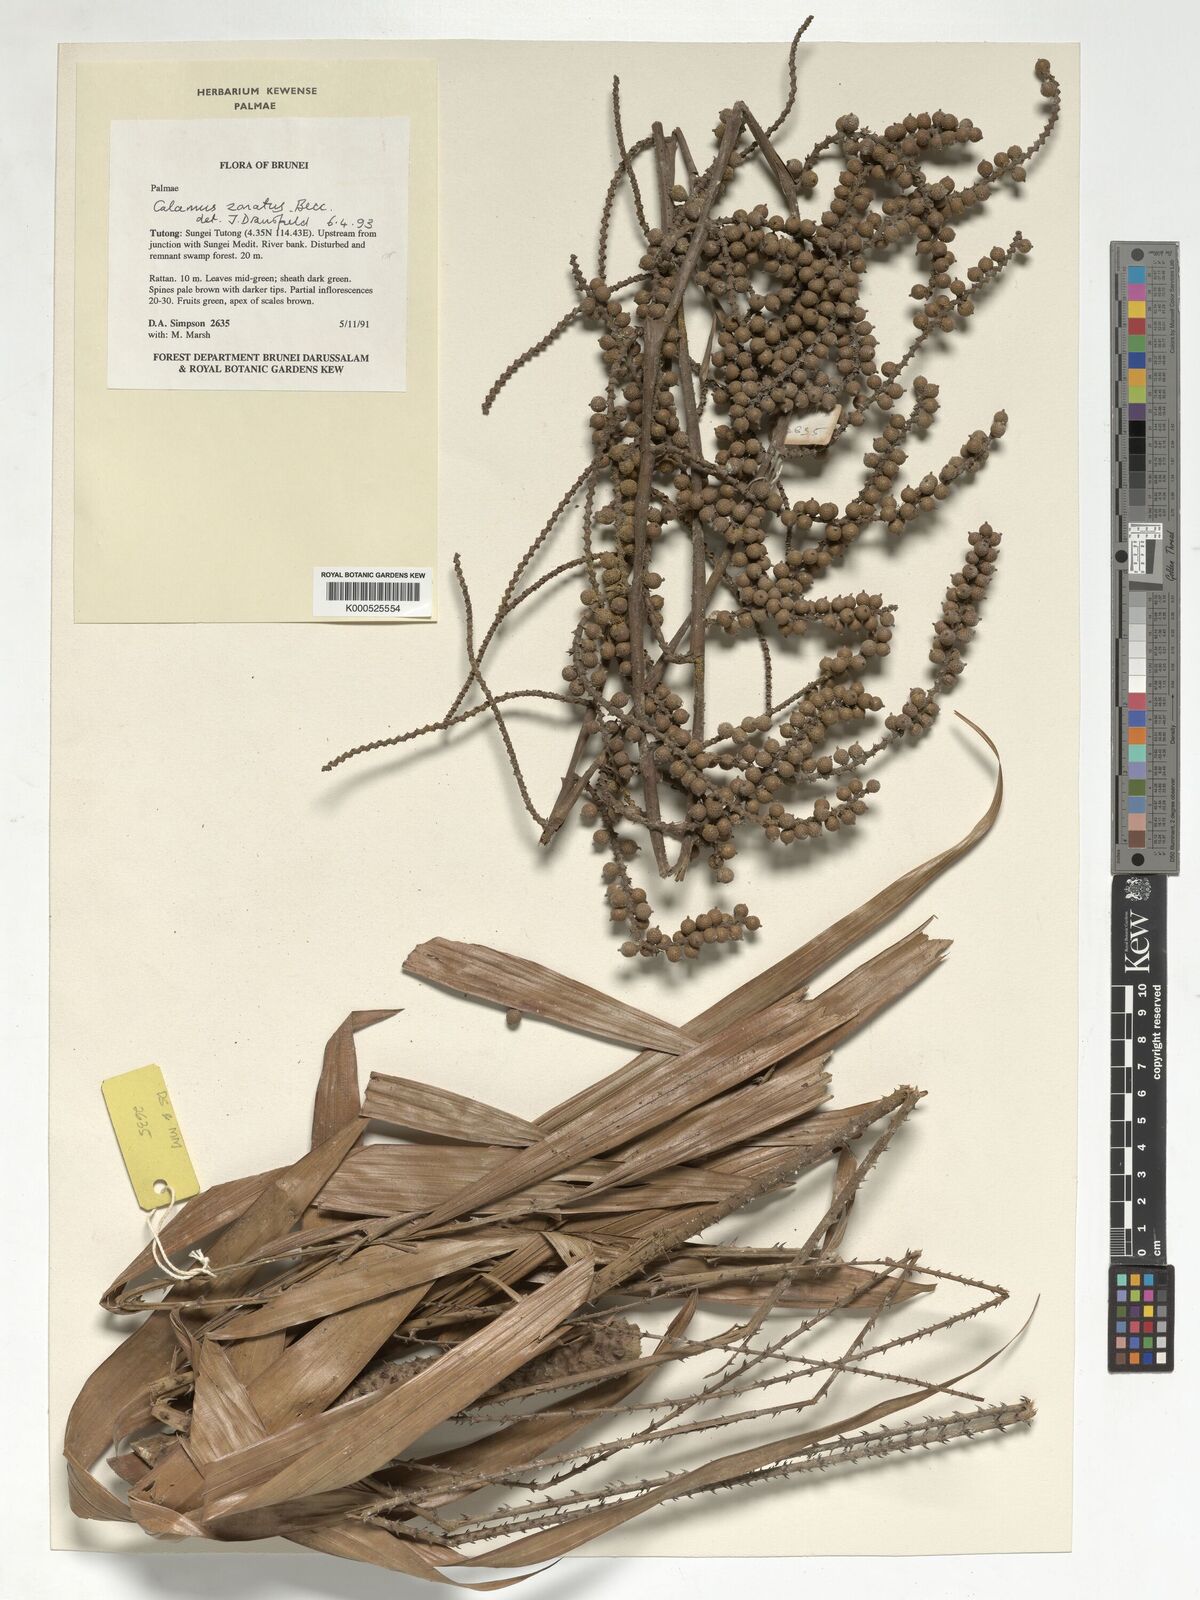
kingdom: Plantae
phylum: Tracheophyta
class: Liliopsida
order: Arecales
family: Arecaceae
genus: Calamus
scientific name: Calamus zonatus
